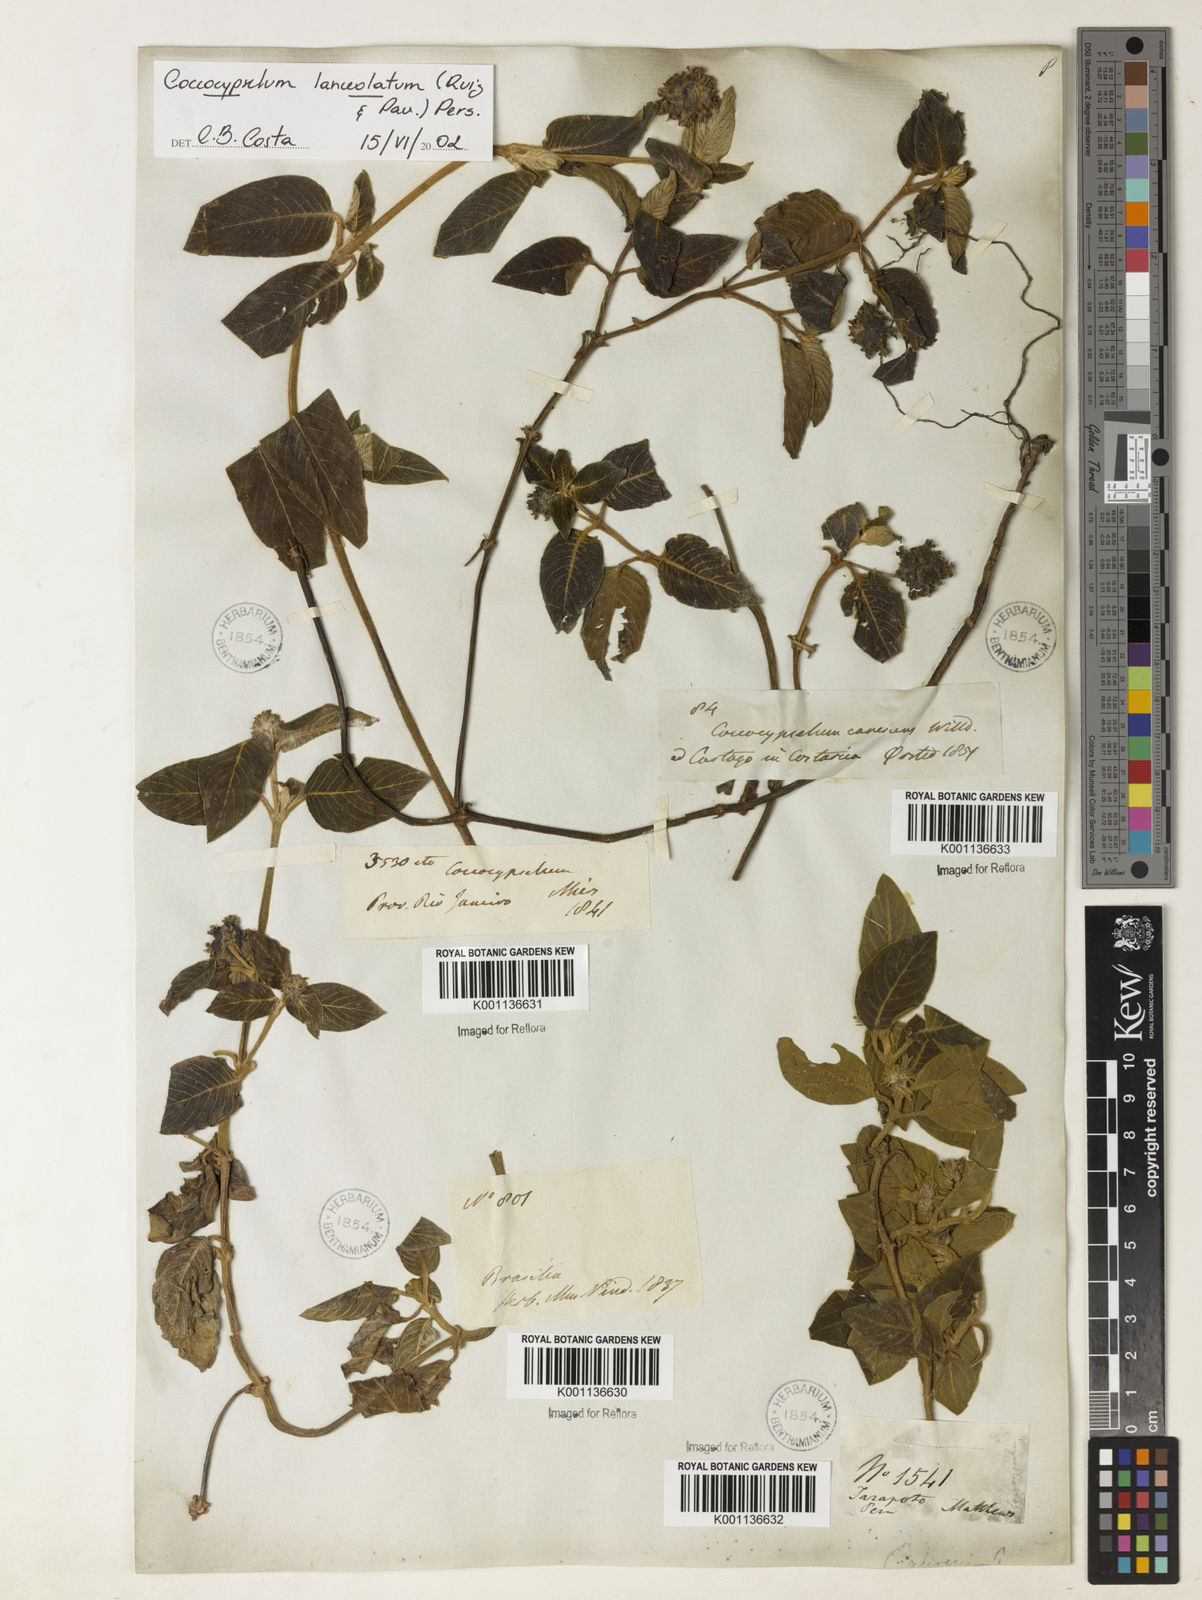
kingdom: Plantae
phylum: Tracheophyta
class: Magnoliopsida
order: Gentianales
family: Rubiaceae
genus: Coccocypselum
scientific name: Coccocypselum lanceolatum
